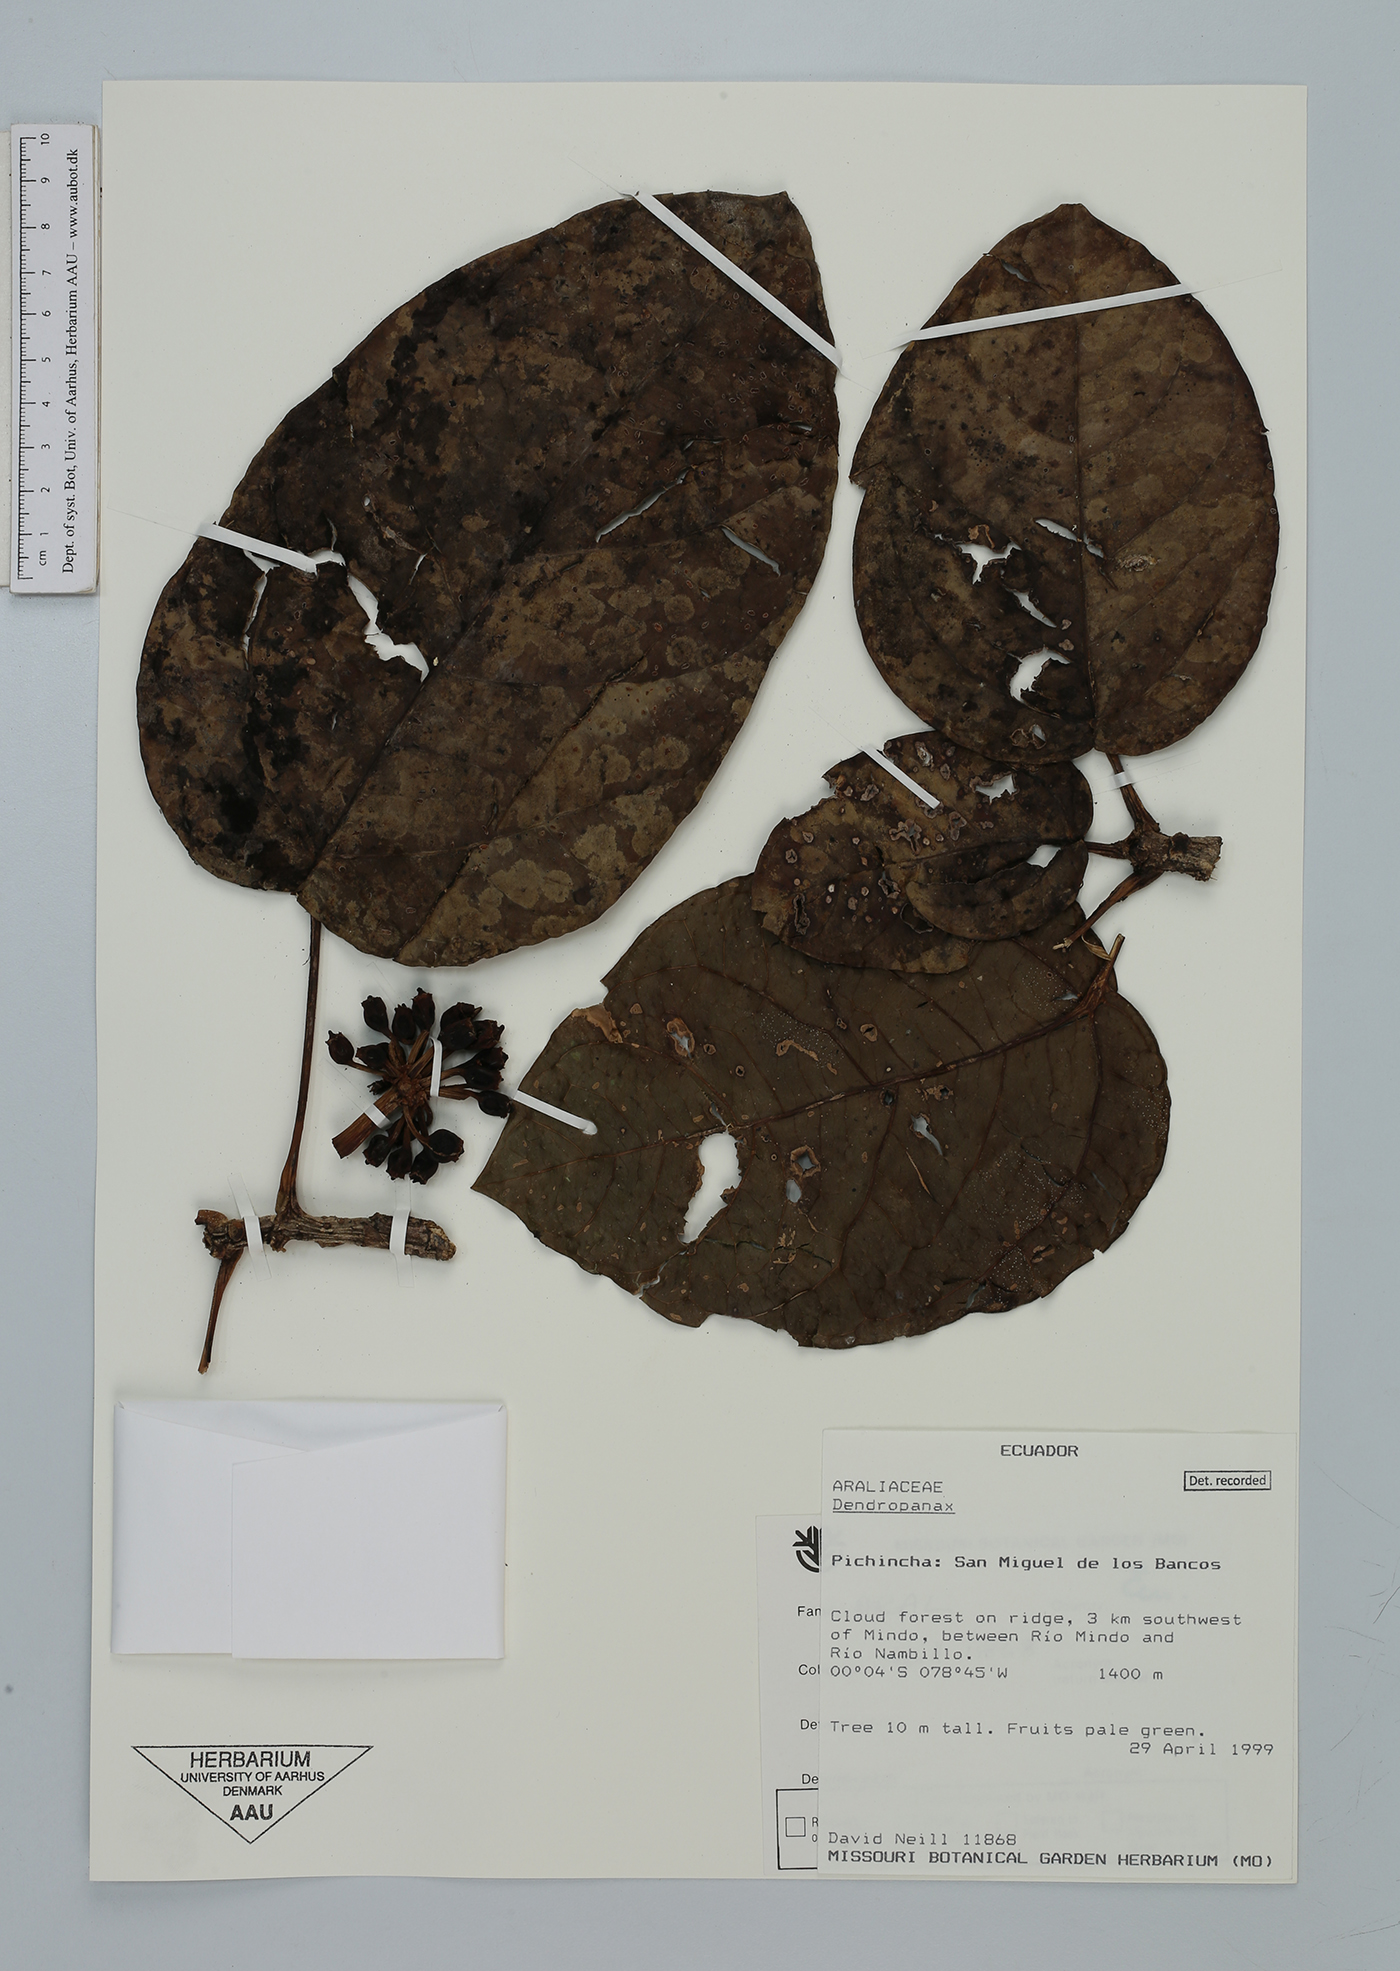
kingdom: Plantae
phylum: Tracheophyta
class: Magnoliopsida
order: Apiales
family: Araliaceae
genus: Dendropanax
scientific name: Dendropanax
